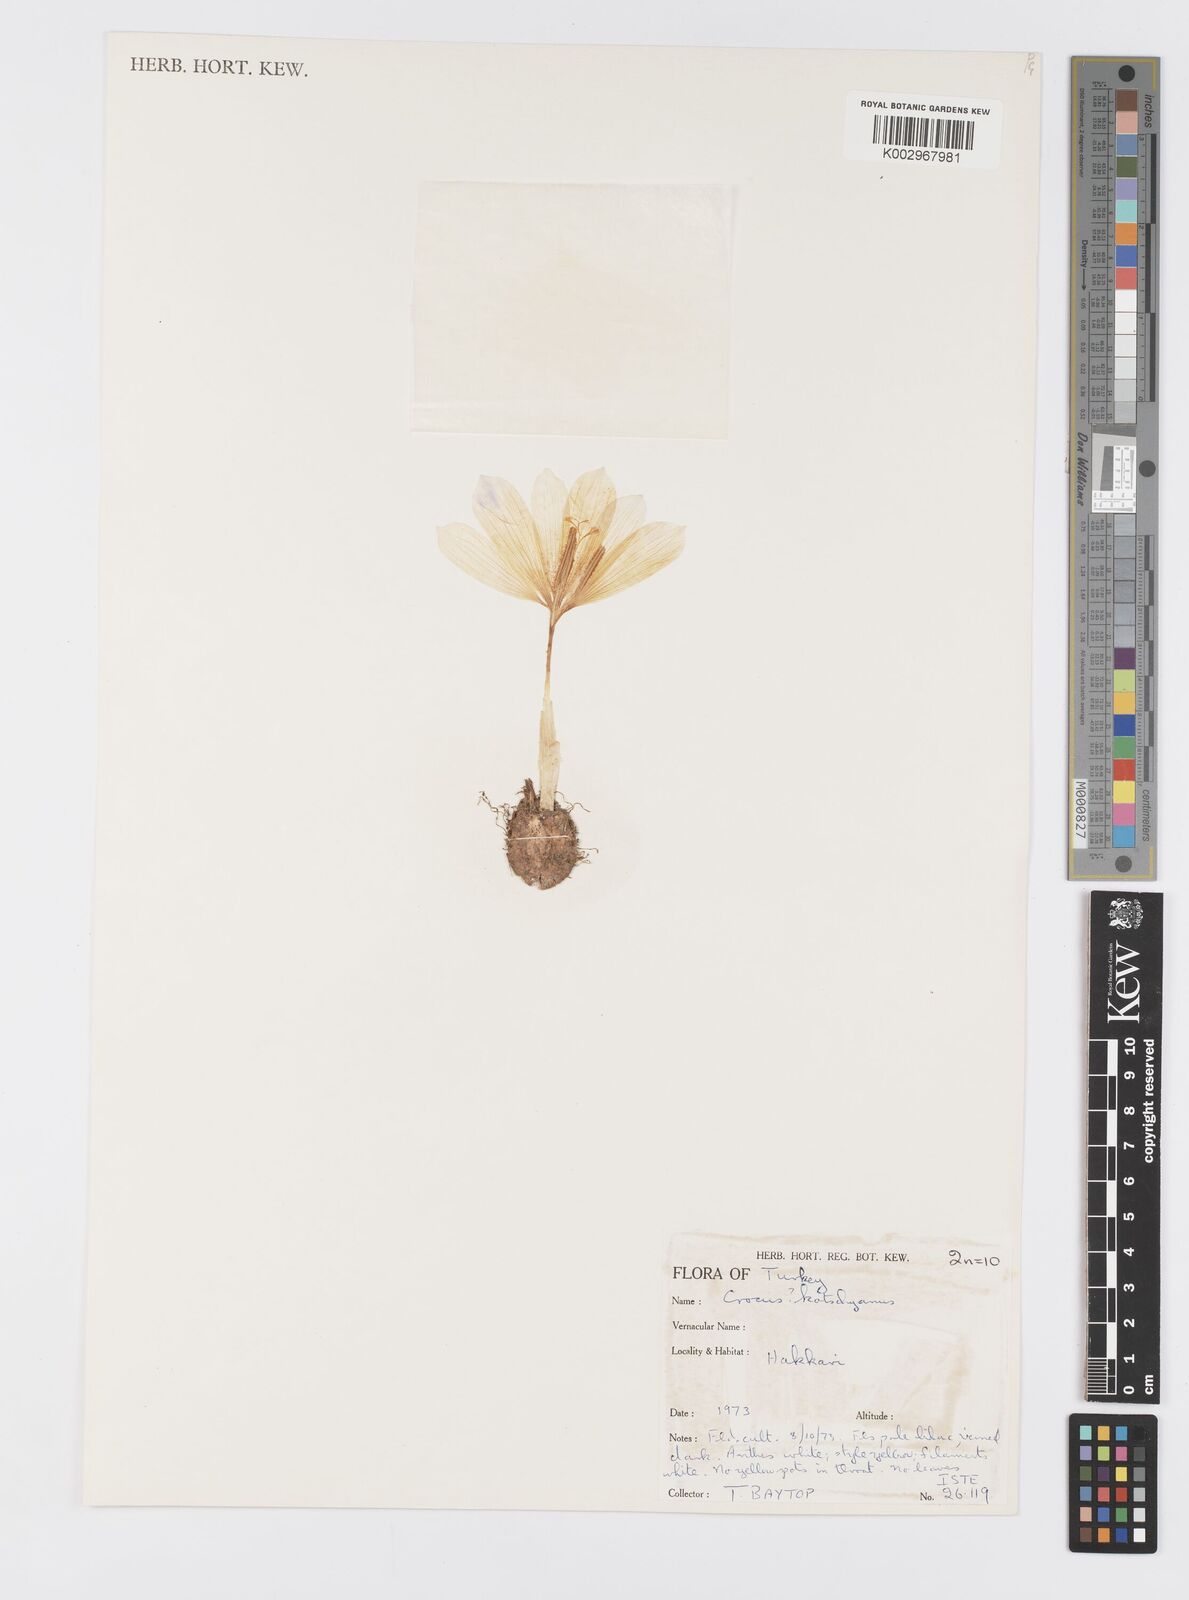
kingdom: Plantae
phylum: Tracheophyta
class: Liliopsida
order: Asparagales
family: Iridaceae
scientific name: Iridaceae
